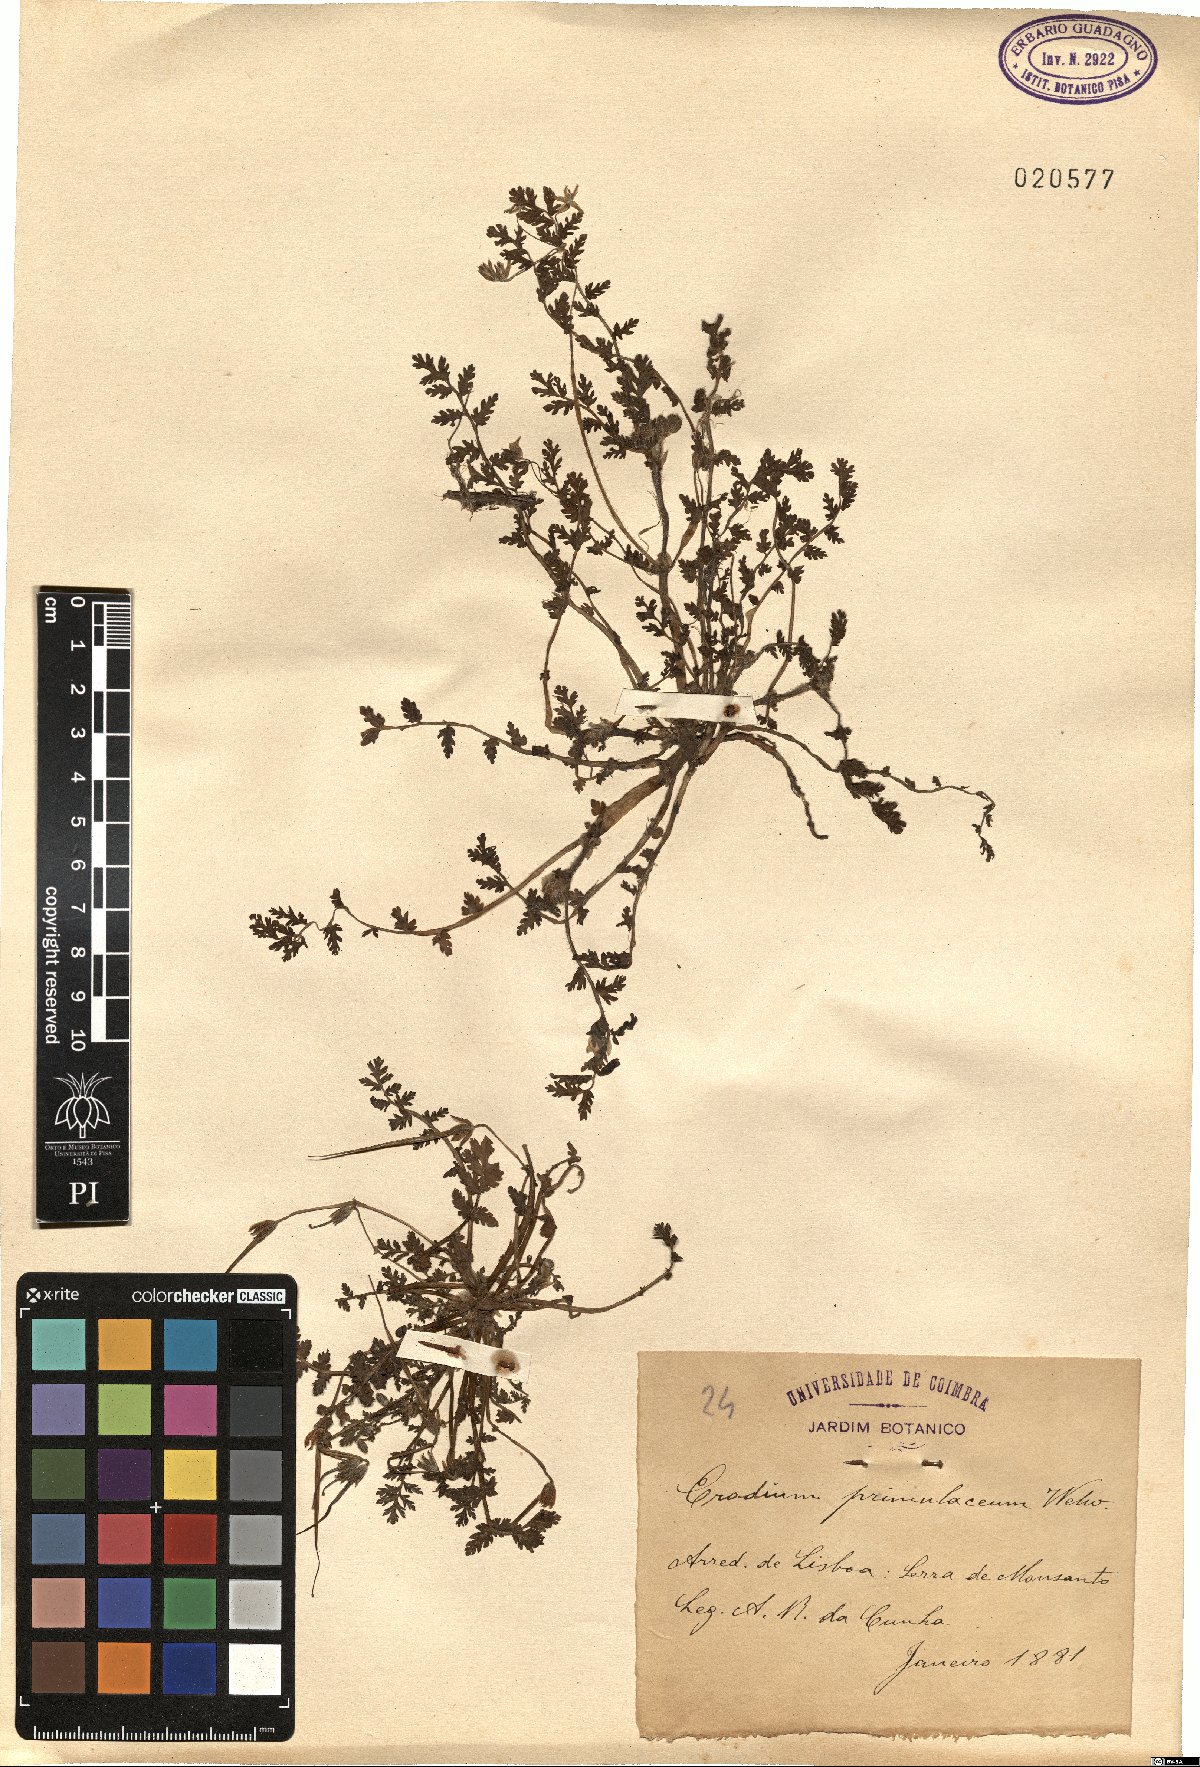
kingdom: Plantae
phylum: Tracheophyta
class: Magnoliopsida
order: Geraniales
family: Geraniaceae
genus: Erodium
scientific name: Erodium maculatum
